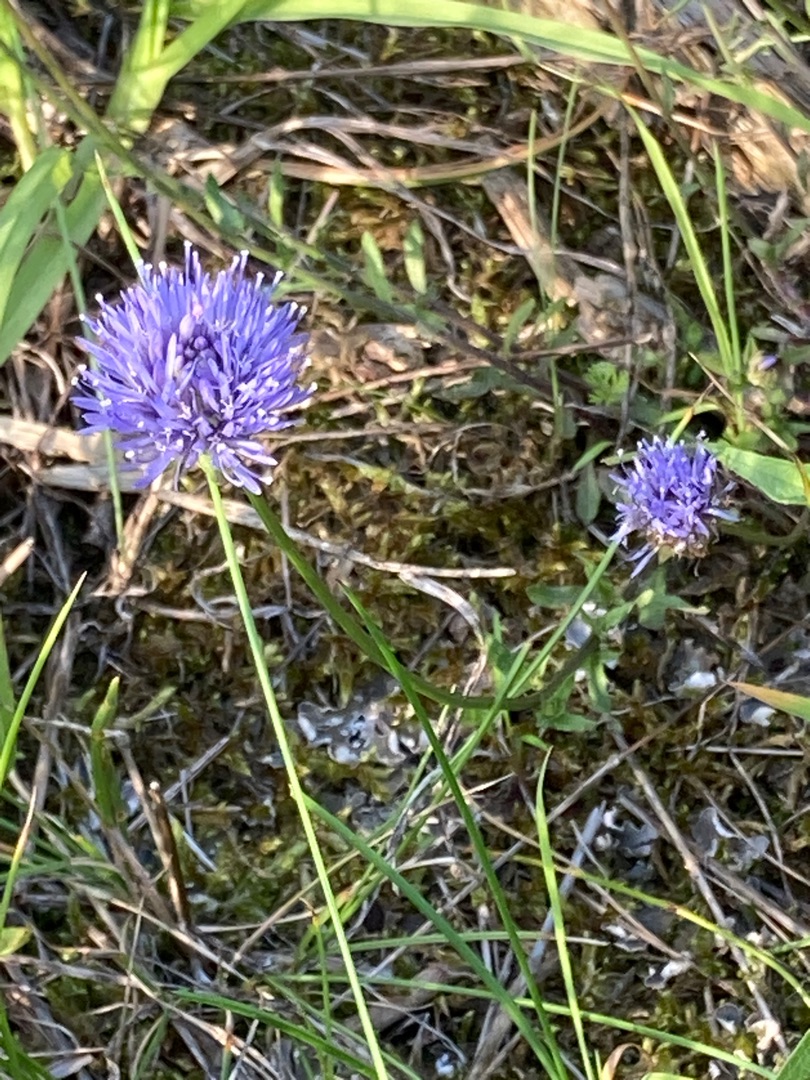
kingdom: Plantae
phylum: Tracheophyta
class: Magnoliopsida
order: Asterales
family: Campanulaceae
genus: Jasione
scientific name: Jasione montana
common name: Blåmunke
